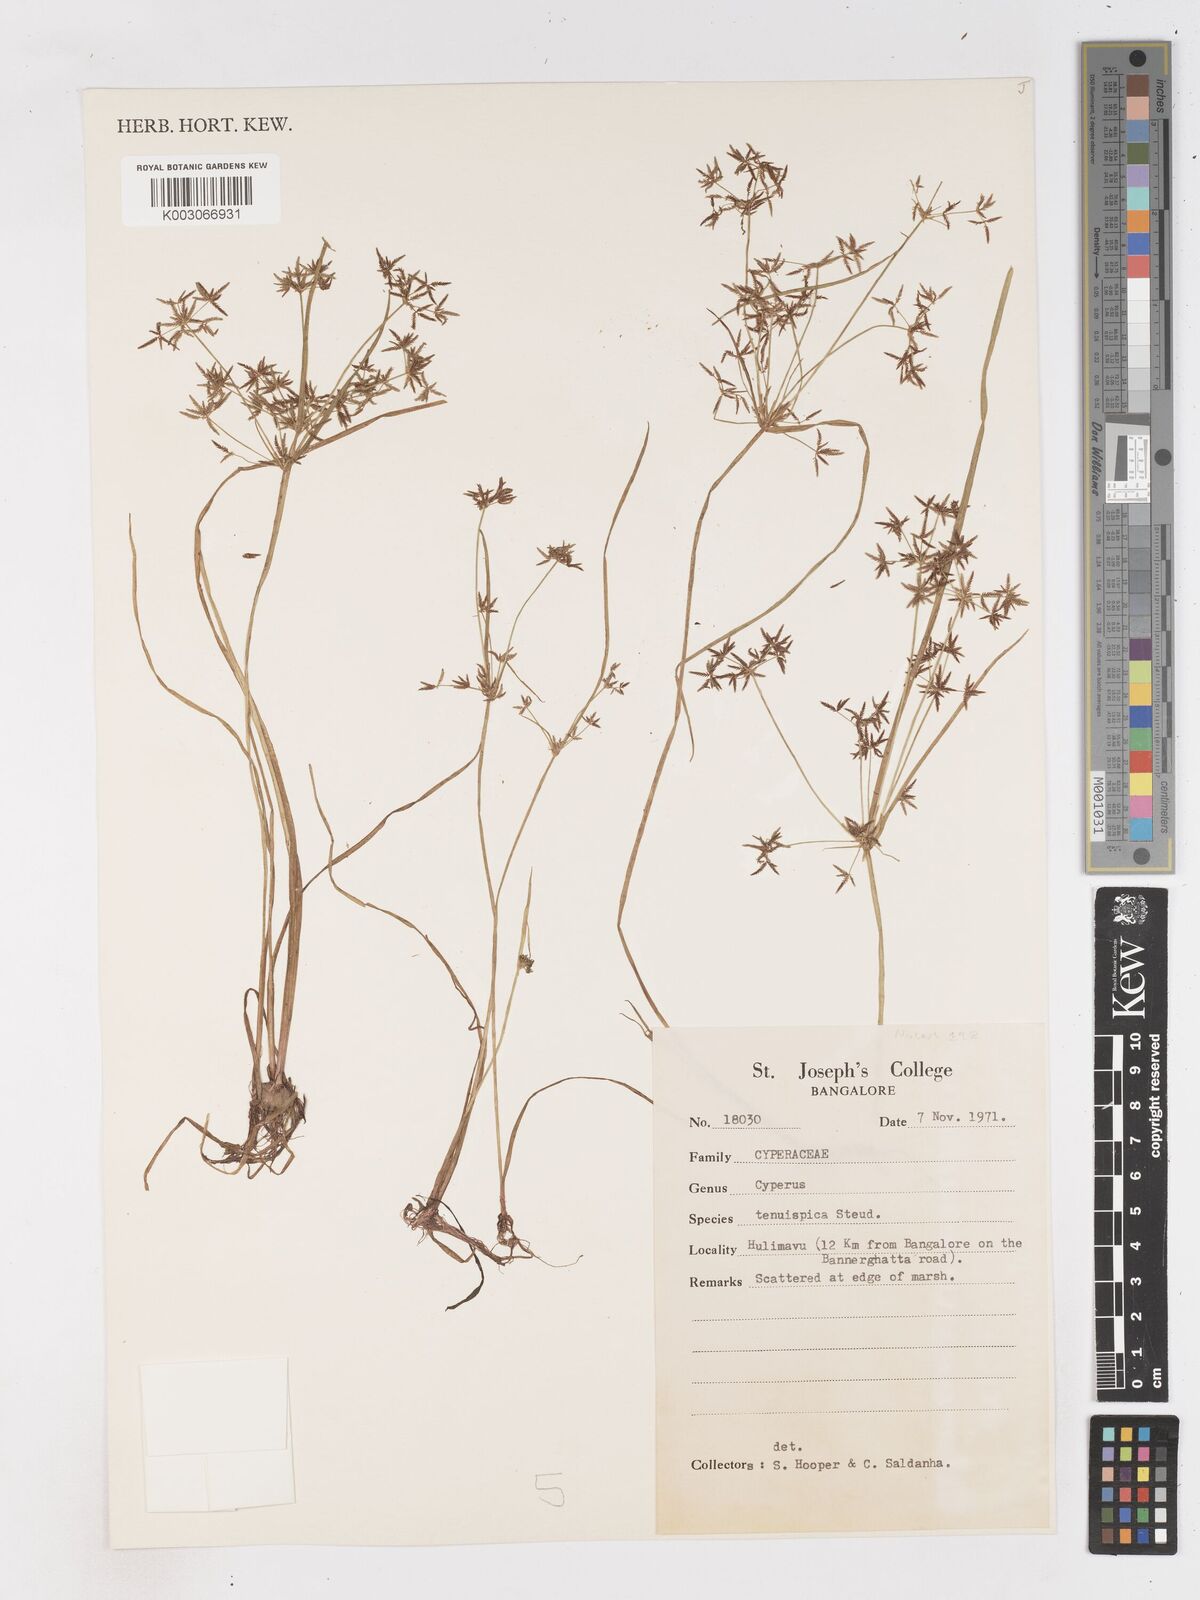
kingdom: Plantae
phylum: Tracheophyta
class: Liliopsida
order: Poales
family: Cyperaceae
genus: Cyperus
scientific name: Cyperus tenuispica
